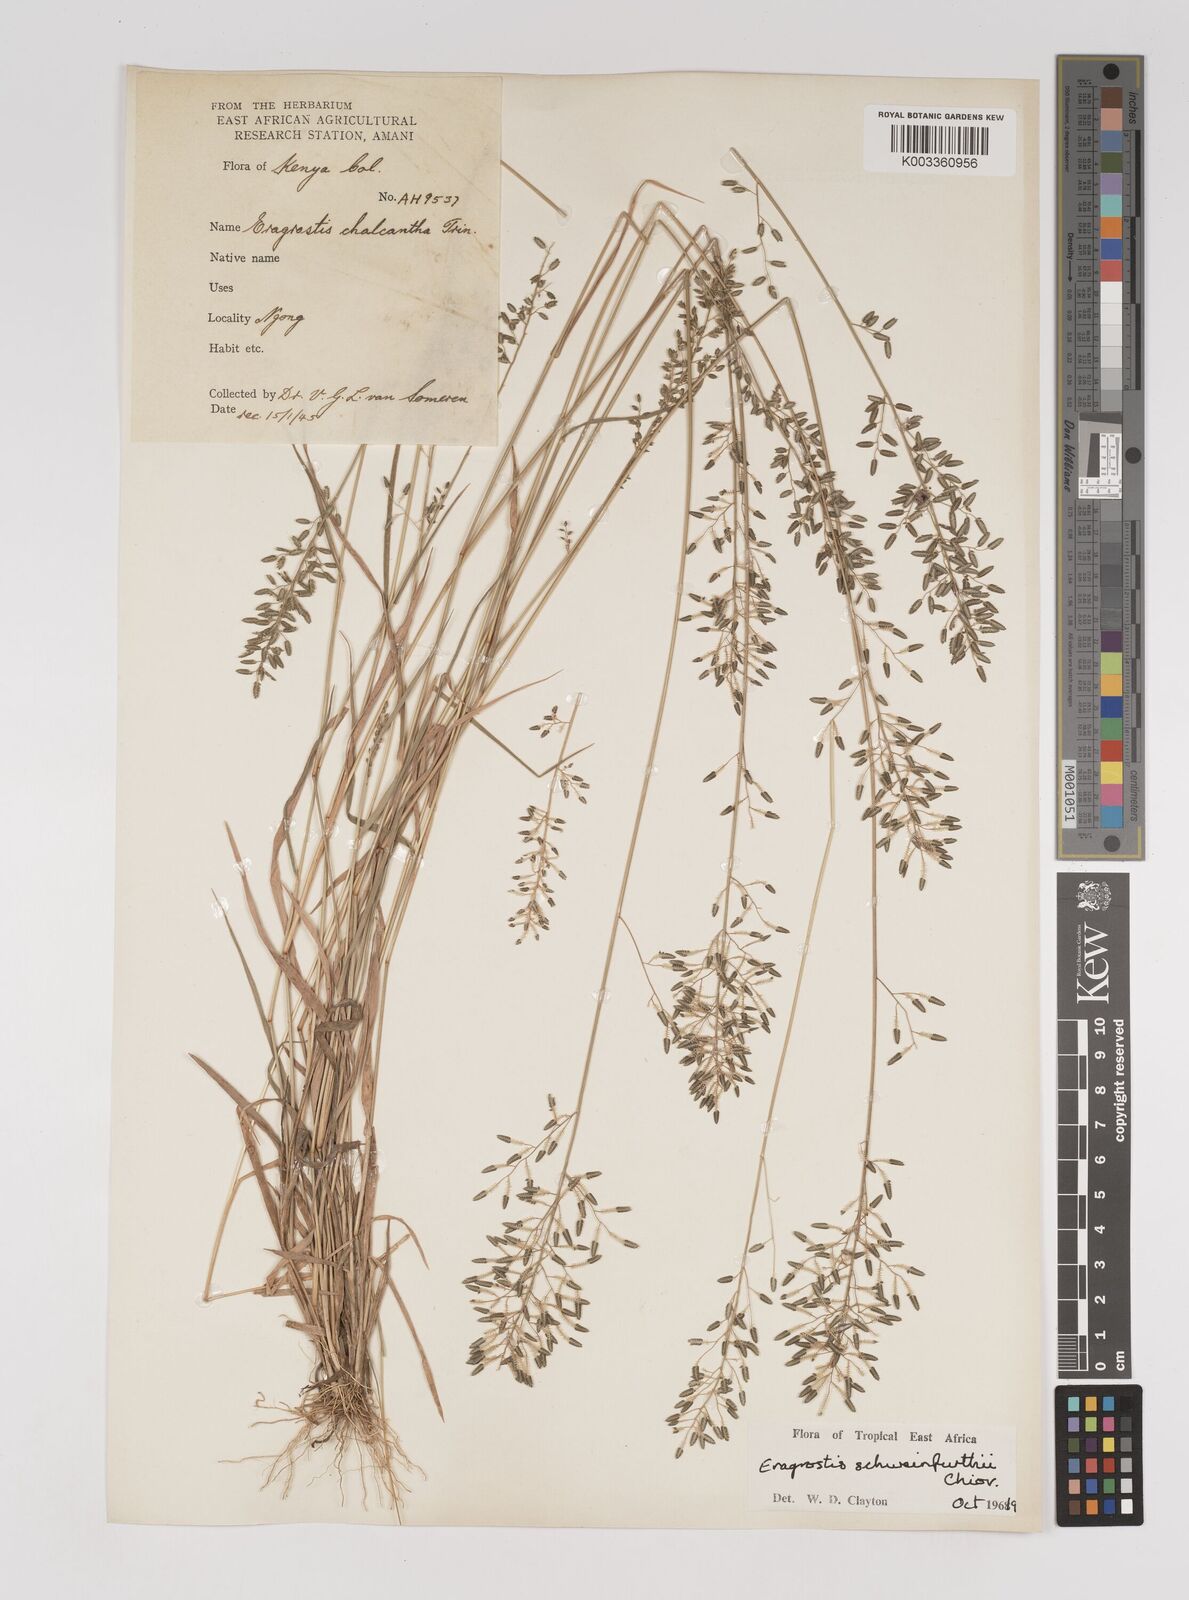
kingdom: Plantae
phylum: Tracheophyta
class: Liliopsida
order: Poales
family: Poaceae
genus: Eragrostis
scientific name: Eragrostis schweinfurthii
